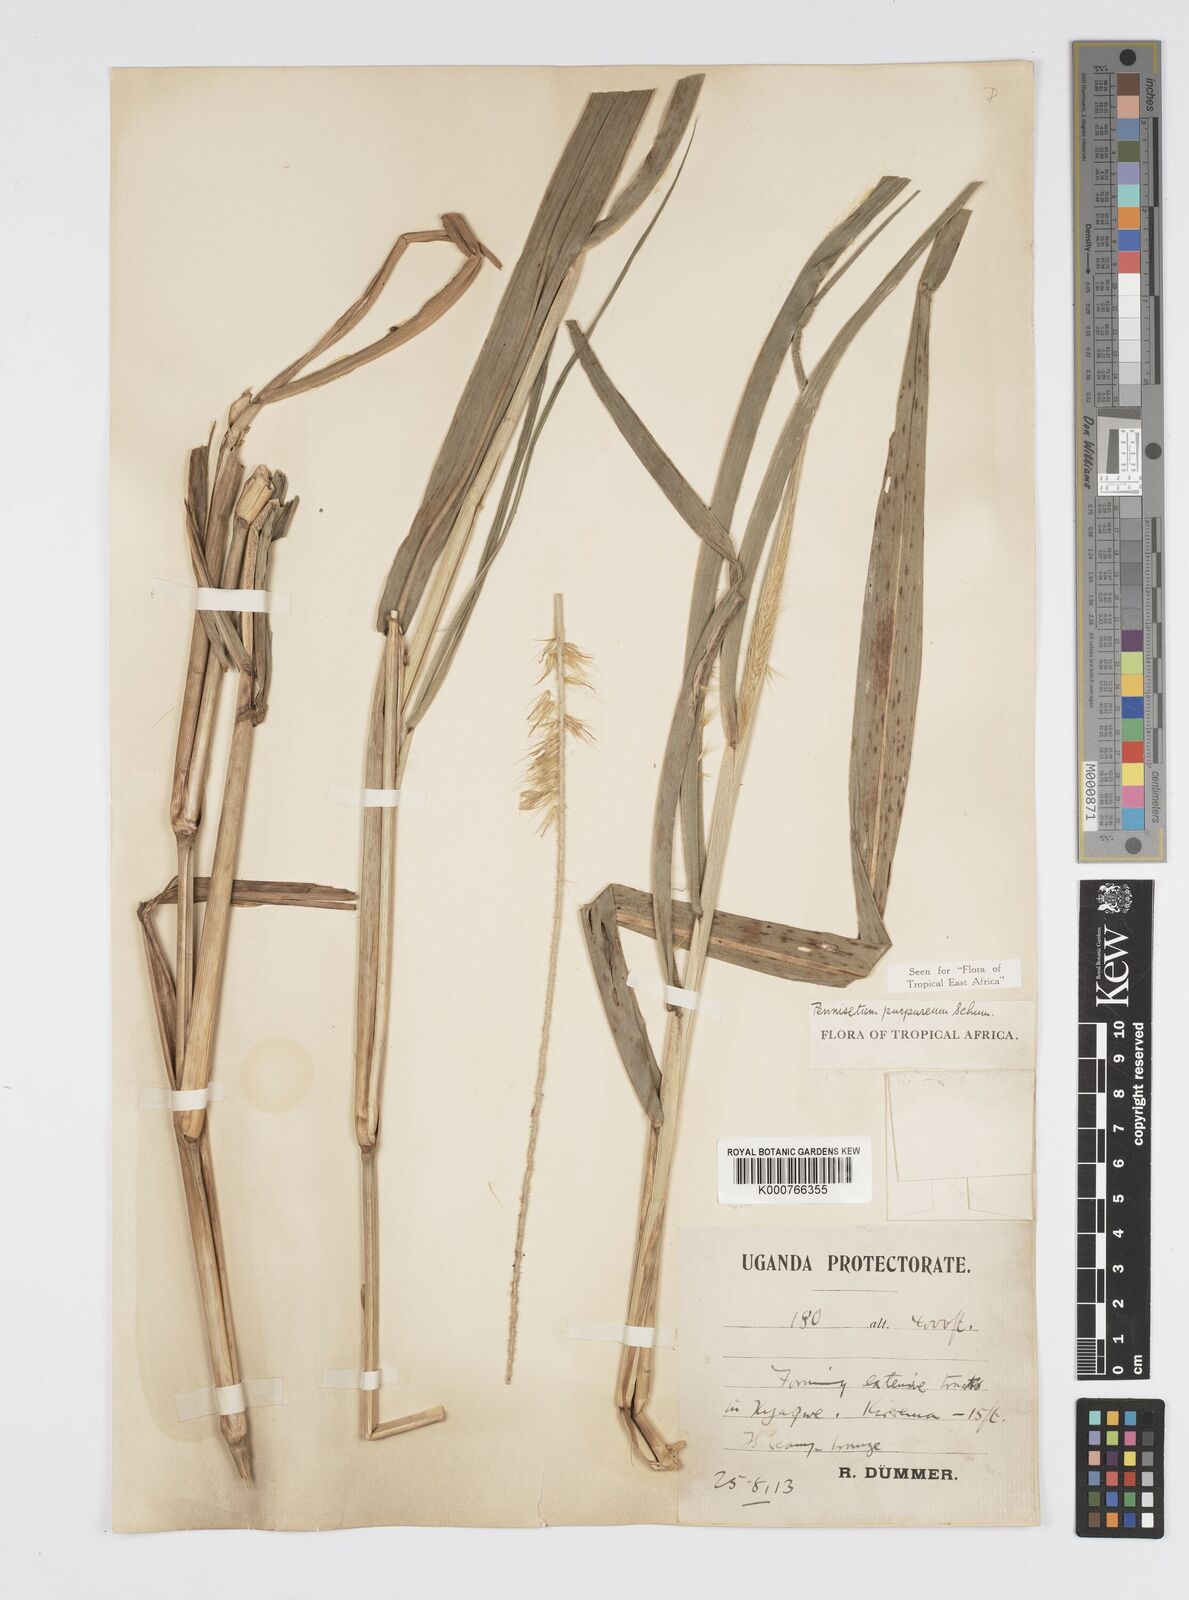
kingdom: Plantae
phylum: Tracheophyta
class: Liliopsida
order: Poales
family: Poaceae
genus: Cenchrus
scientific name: Cenchrus purpureus
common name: Elephant grass
